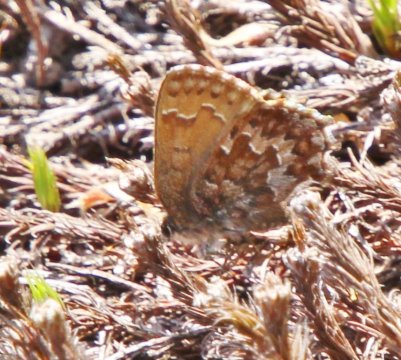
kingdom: Animalia
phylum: Arthropoda
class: Insecta
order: Lepidoptera
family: Lycaenidae
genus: Incisalia
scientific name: Incisalia niphon
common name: Eastern Pine Elfin
